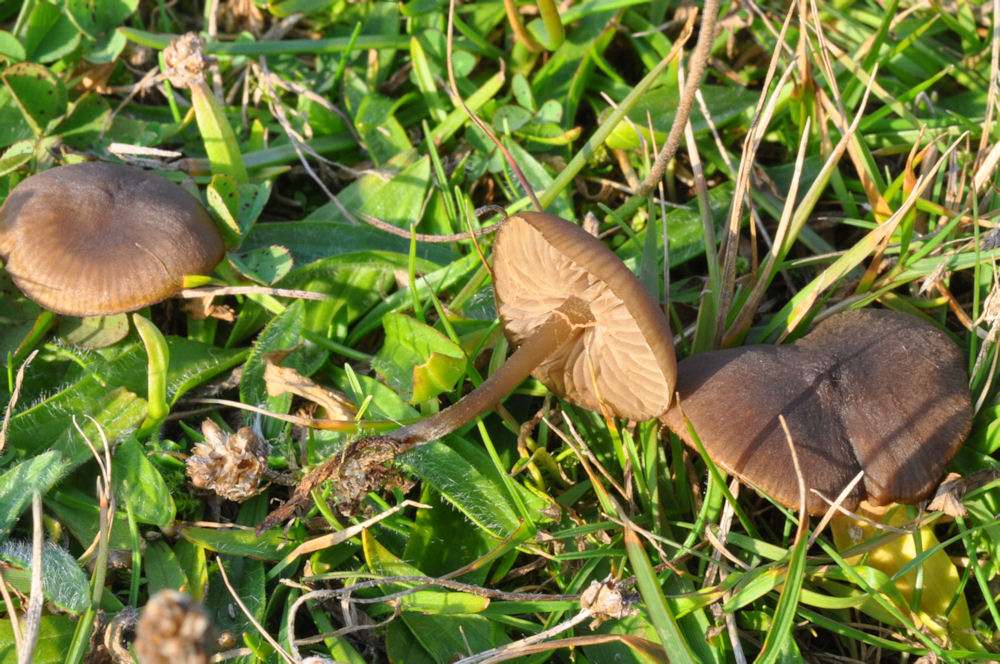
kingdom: Fungi
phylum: Basidiomycota
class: Agaricomycetes
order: Agaricales
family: Entolomataceae
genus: Entoloma
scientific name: Entoloma
